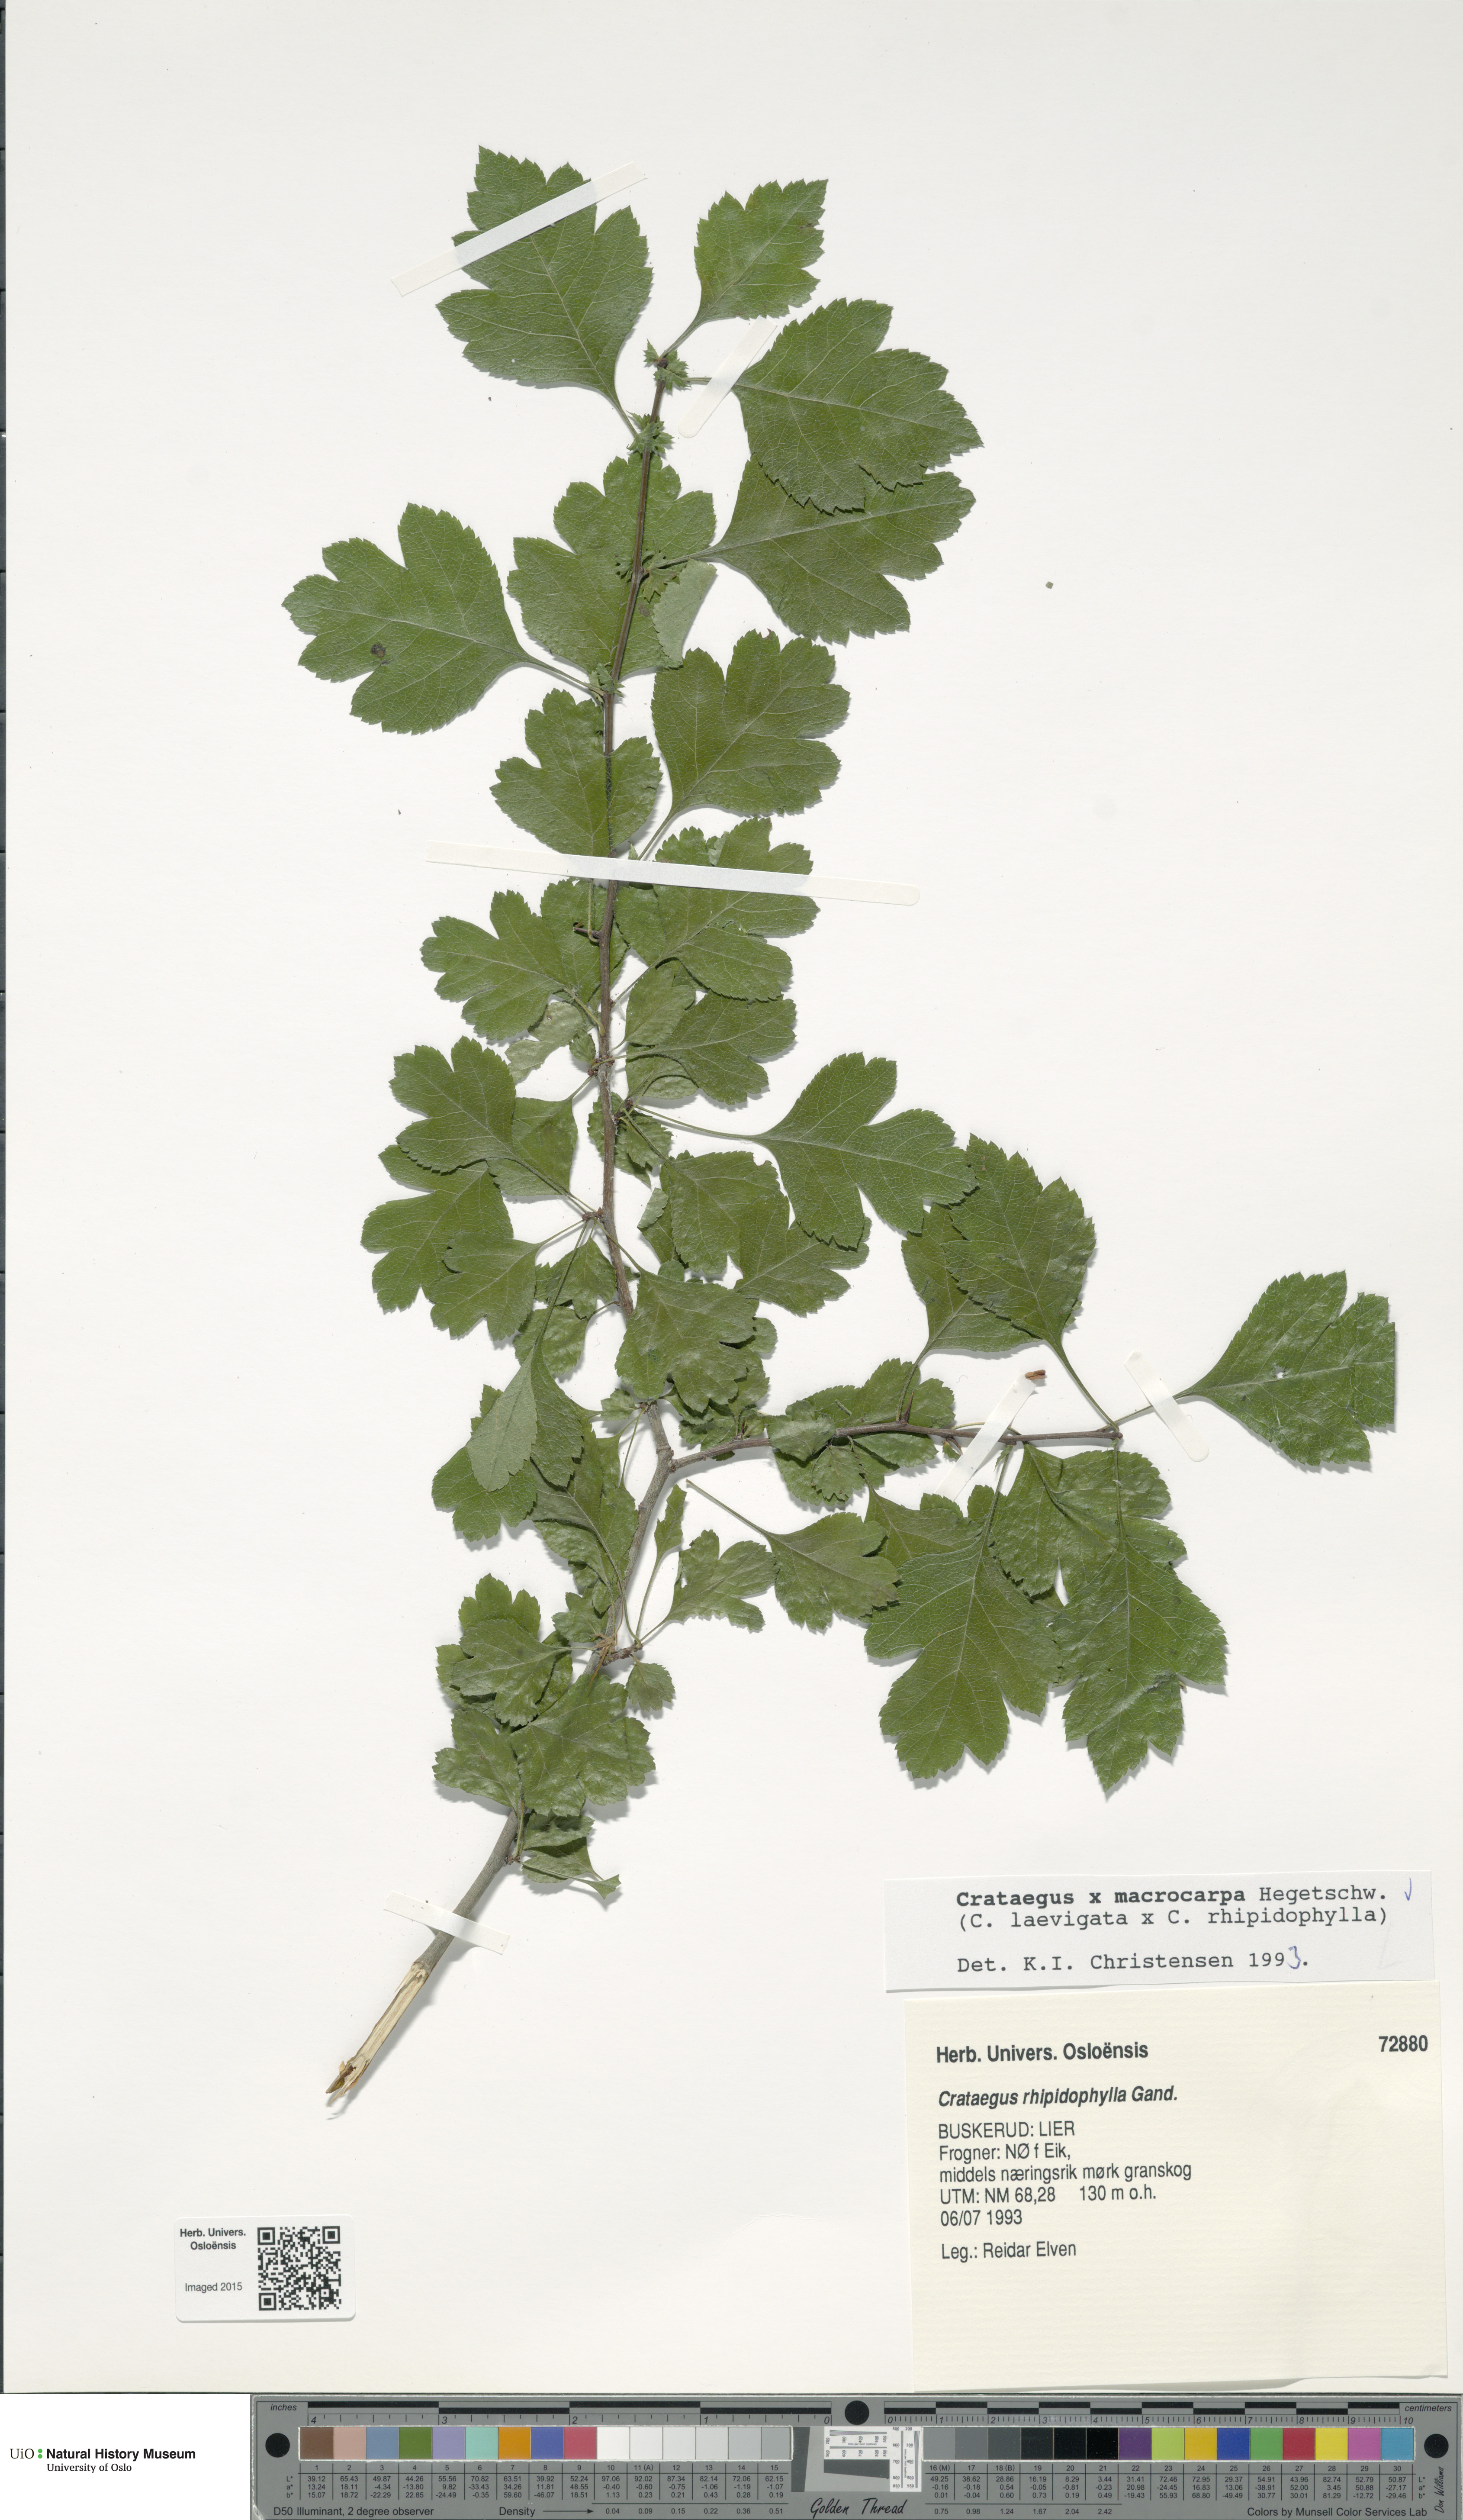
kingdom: Plantae
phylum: Tracheophyta
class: Magnoliopsida
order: Rosales
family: Rosaceae
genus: Crataegus
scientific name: Crataegus
